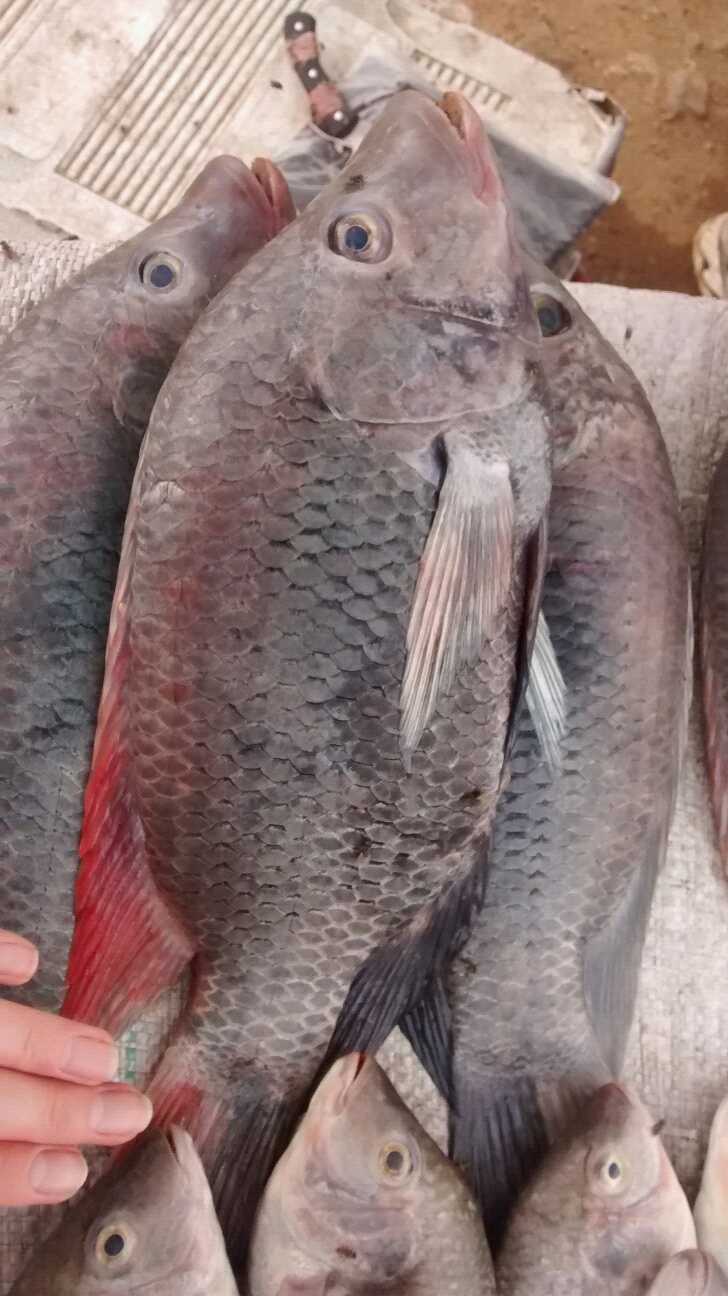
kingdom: Animalia
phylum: Chordata
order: Perciformes
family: Cichlidae
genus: Oreochromis
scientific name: Oreochromis urolepis
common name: Wami tilapia
